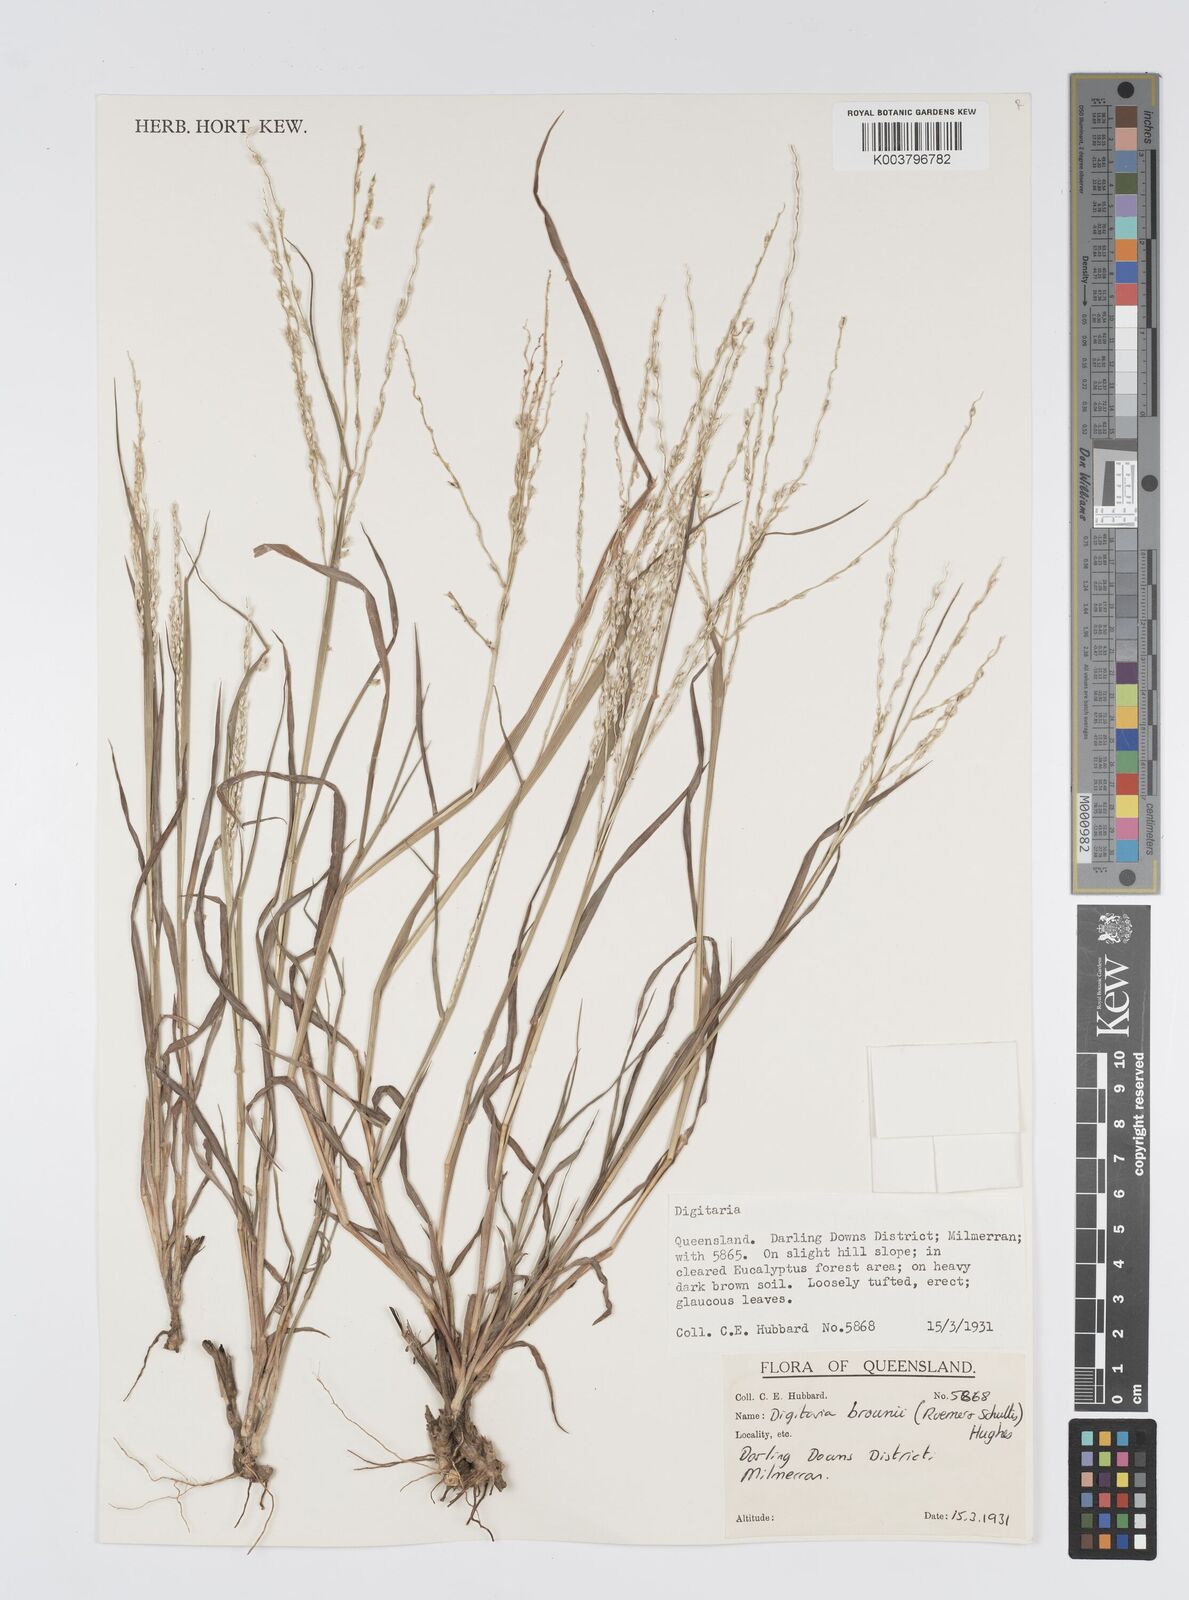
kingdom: Plantae
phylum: Tracheophyta
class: Liliopsida
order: Poales
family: Poaceae
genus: Digitaria
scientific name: Digitaria brownii
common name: Cotton grass
